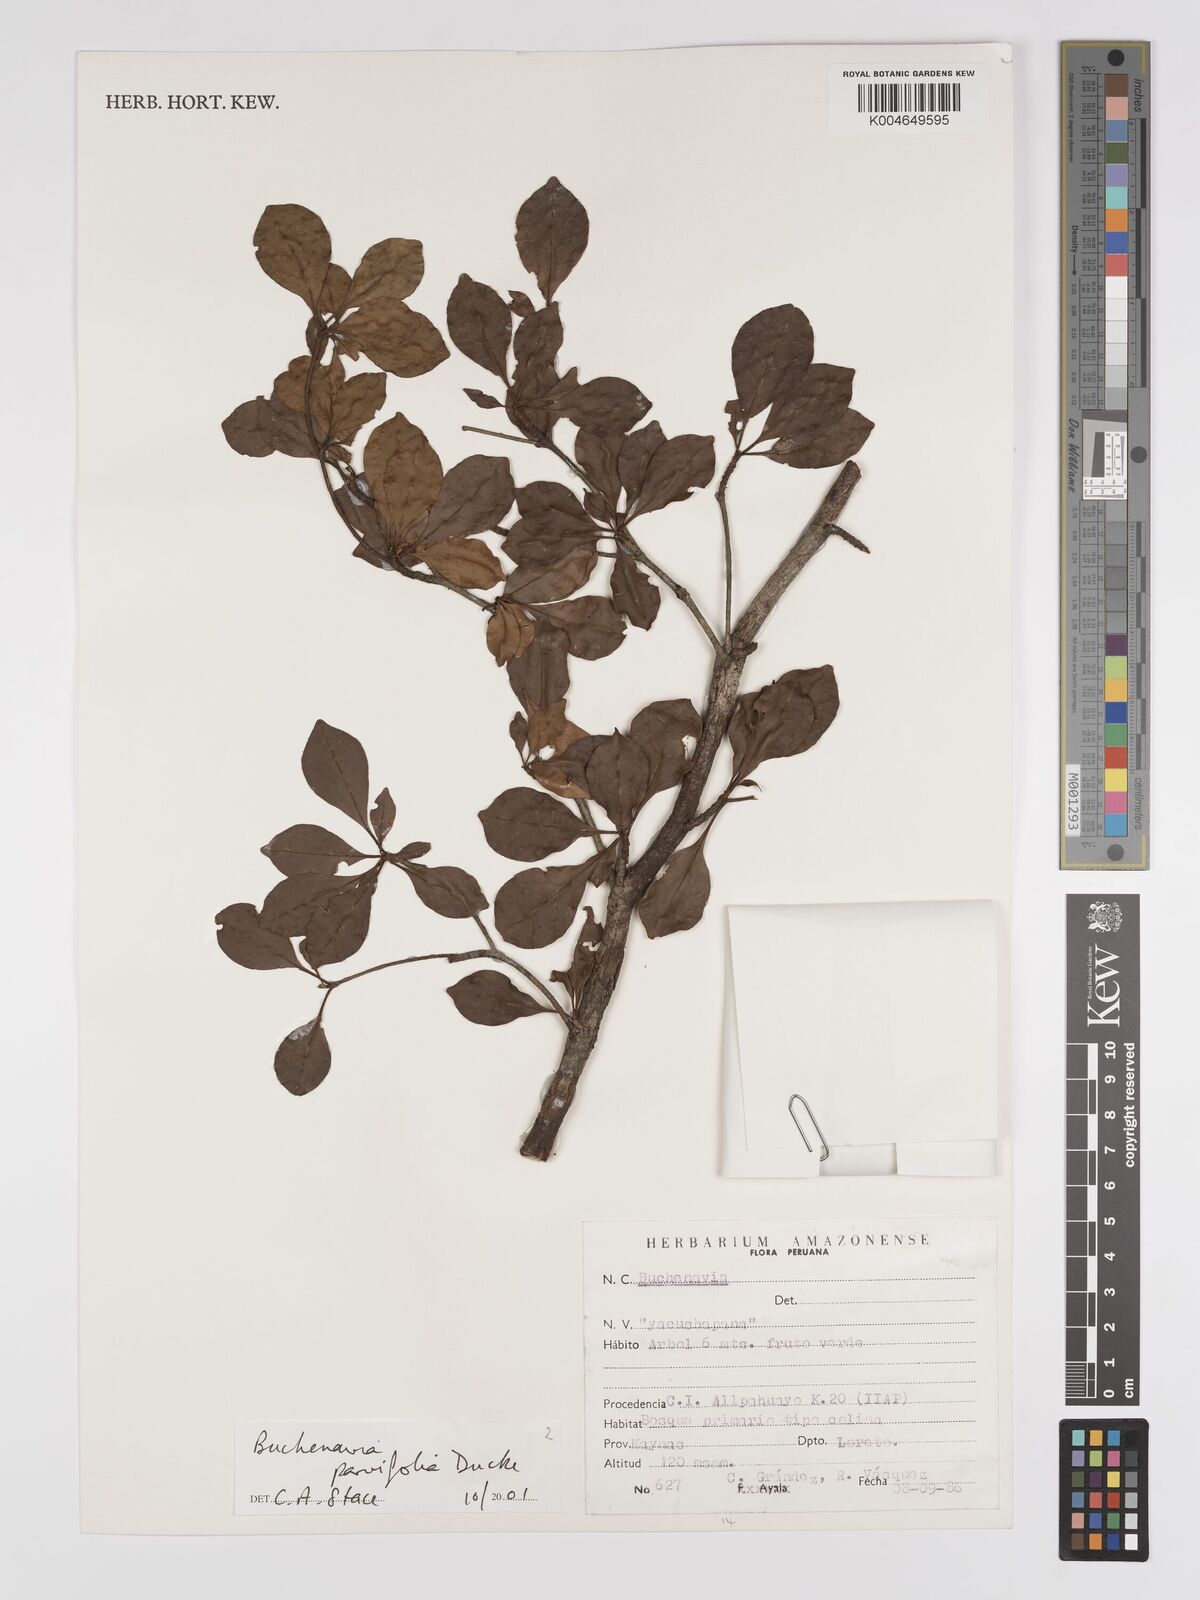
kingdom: Plantae
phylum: Tracheophyta
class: Magnoliopsida
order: Myrtales
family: Combretaceae
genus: Terminalia
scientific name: Terminalia parvifolia
